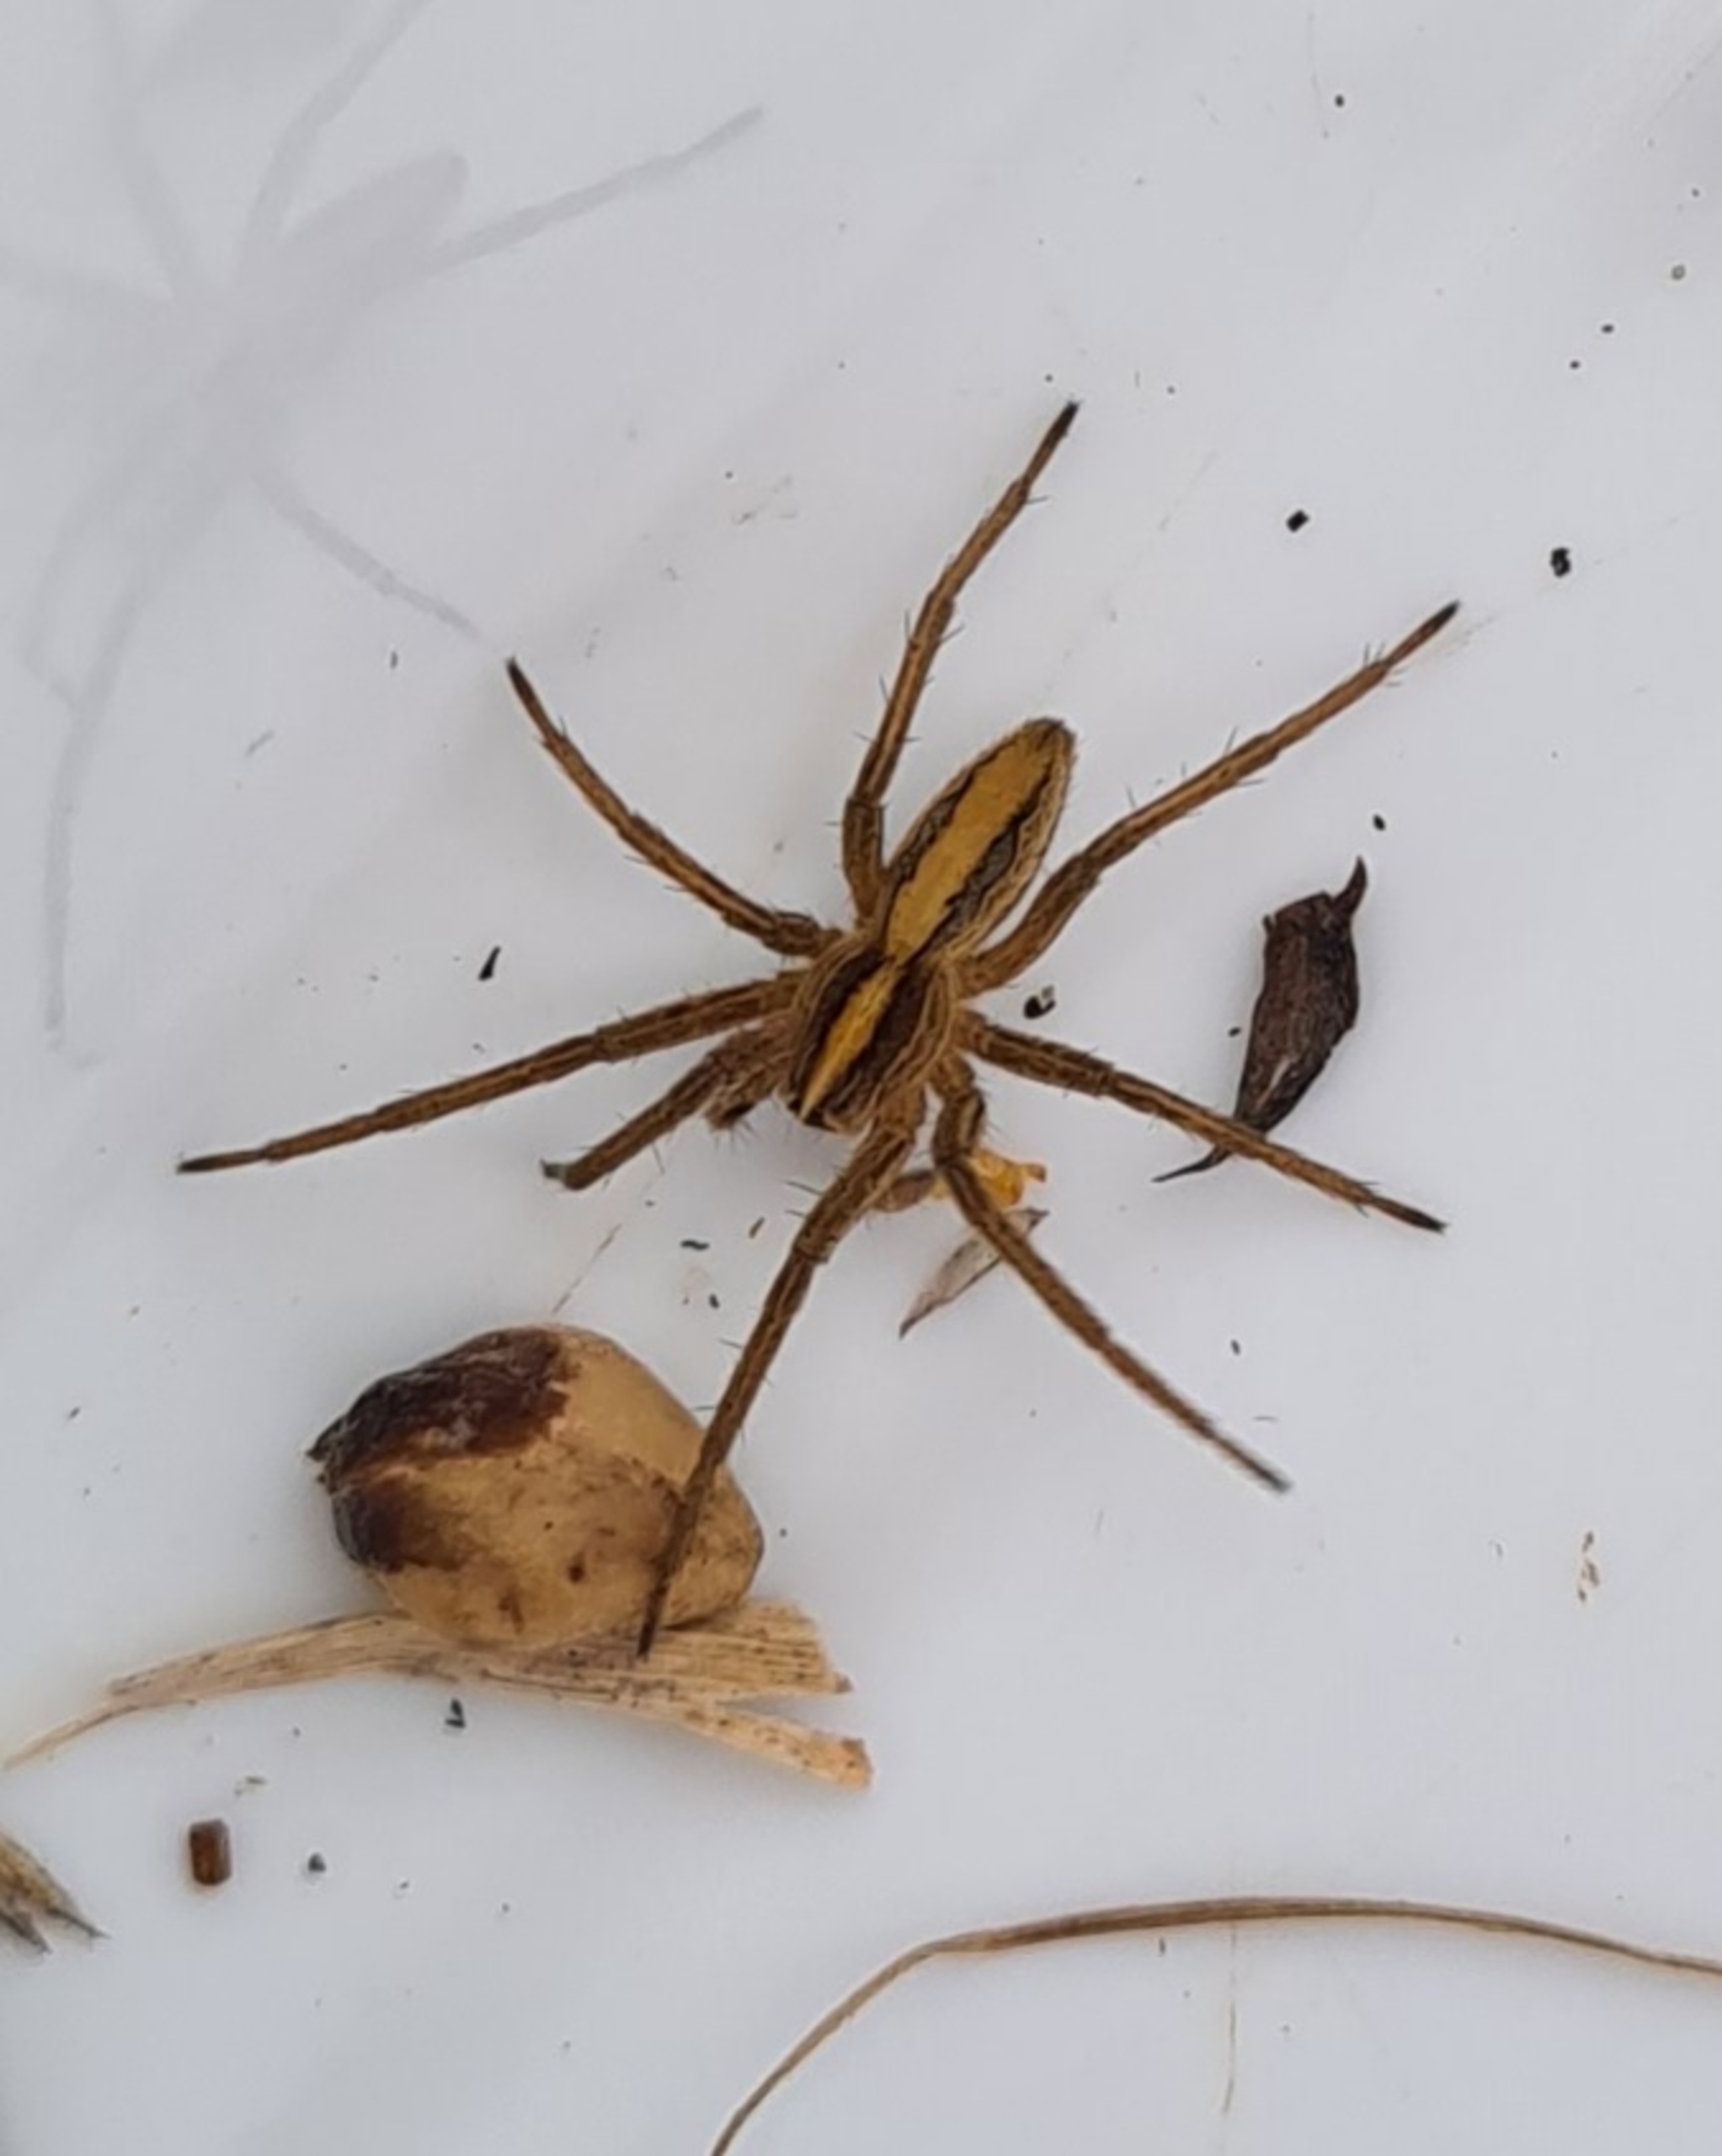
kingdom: Animalia
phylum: Arthropoda
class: Arachnida
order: Araneae
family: Pisauridae
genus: Pisaura
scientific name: Pisaura mirabilis
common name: Almindelig rovedderkop
